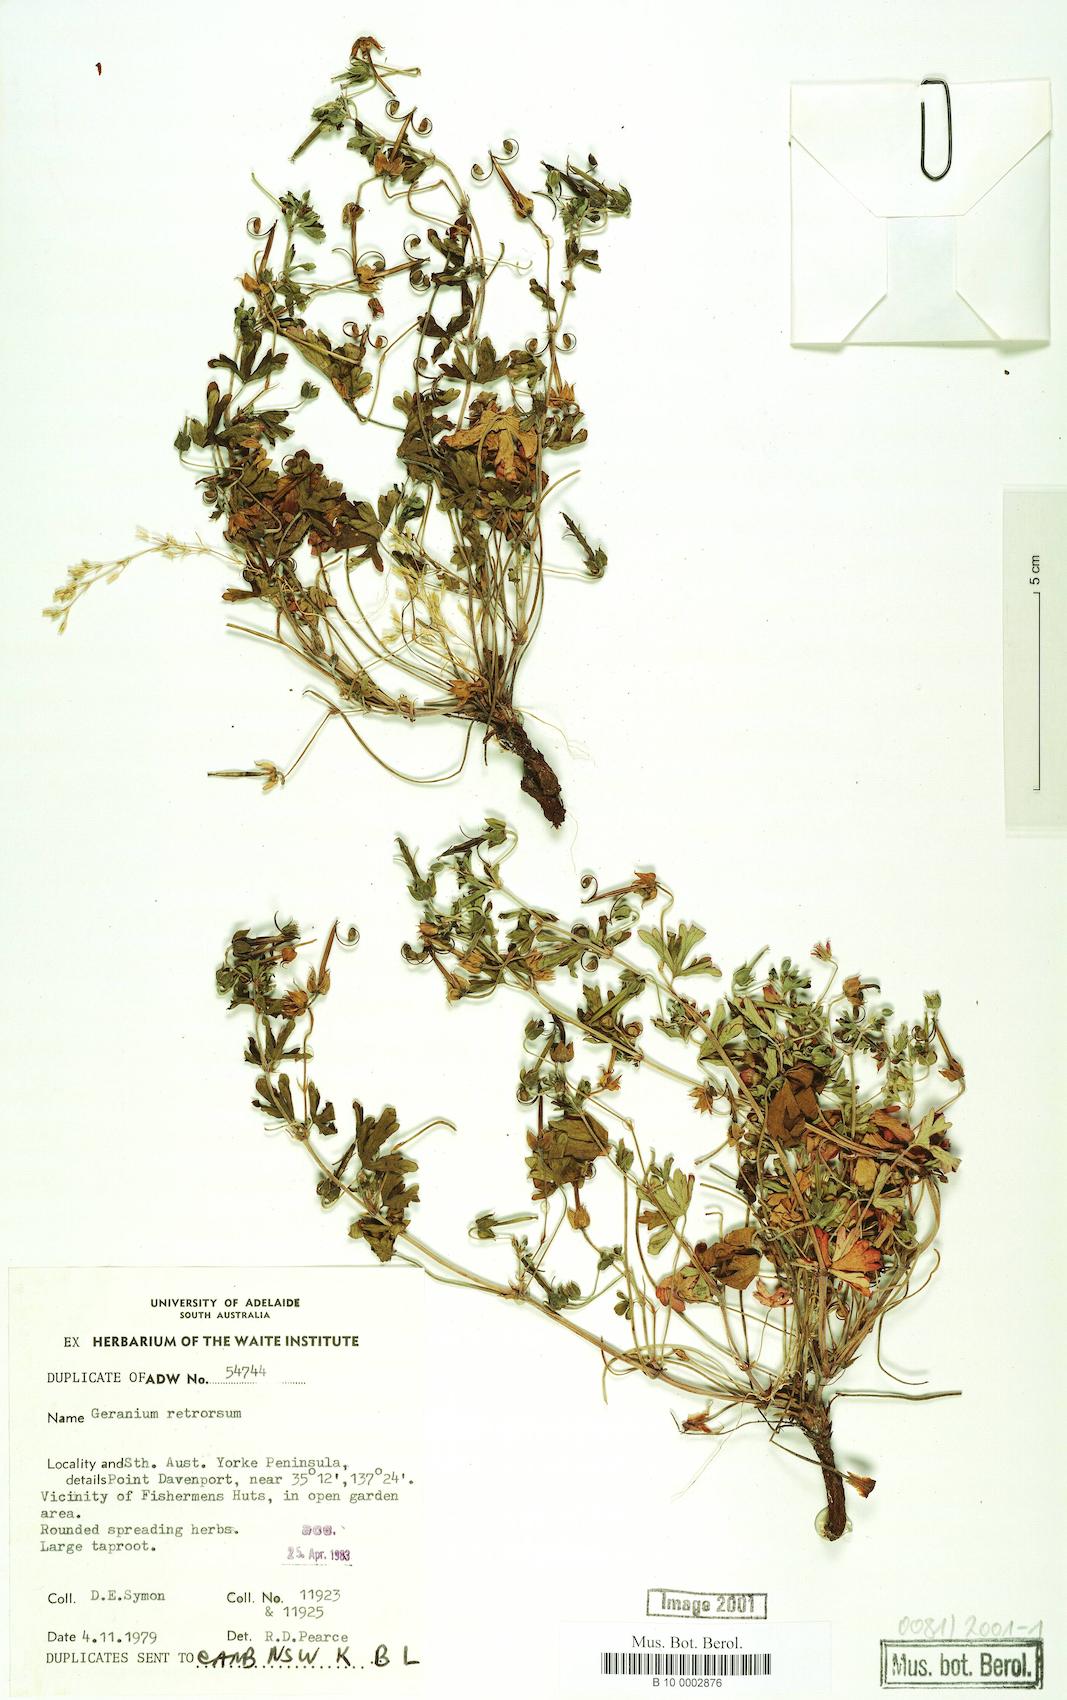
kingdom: Plantae
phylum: Tracheophyta
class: Magnoliopsida
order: Geraniales
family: Geraniaceae
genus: Geranium
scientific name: Geranium retrorsum
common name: New zealand geranium
